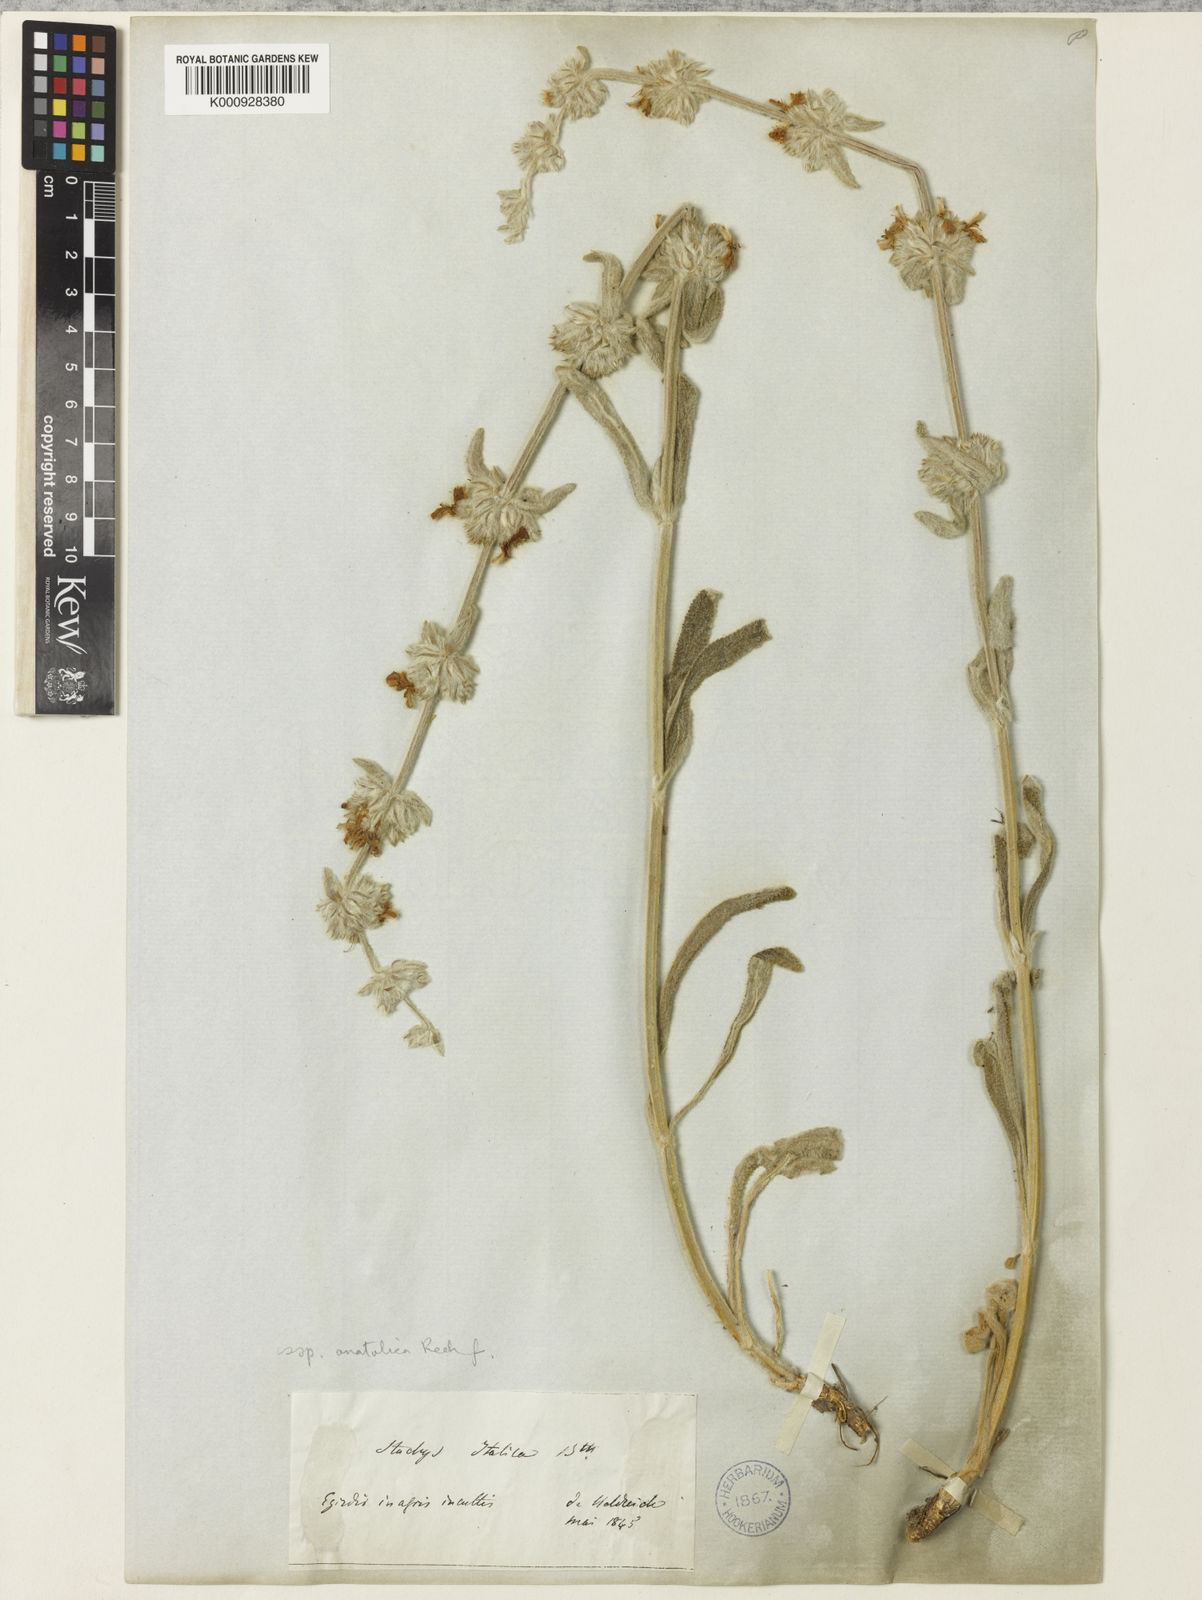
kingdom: Plantae
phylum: Tracheophyta
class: Magnoliopsida
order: Lamiales
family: Lamiaceae
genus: Stachys
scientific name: Stachys cretica
